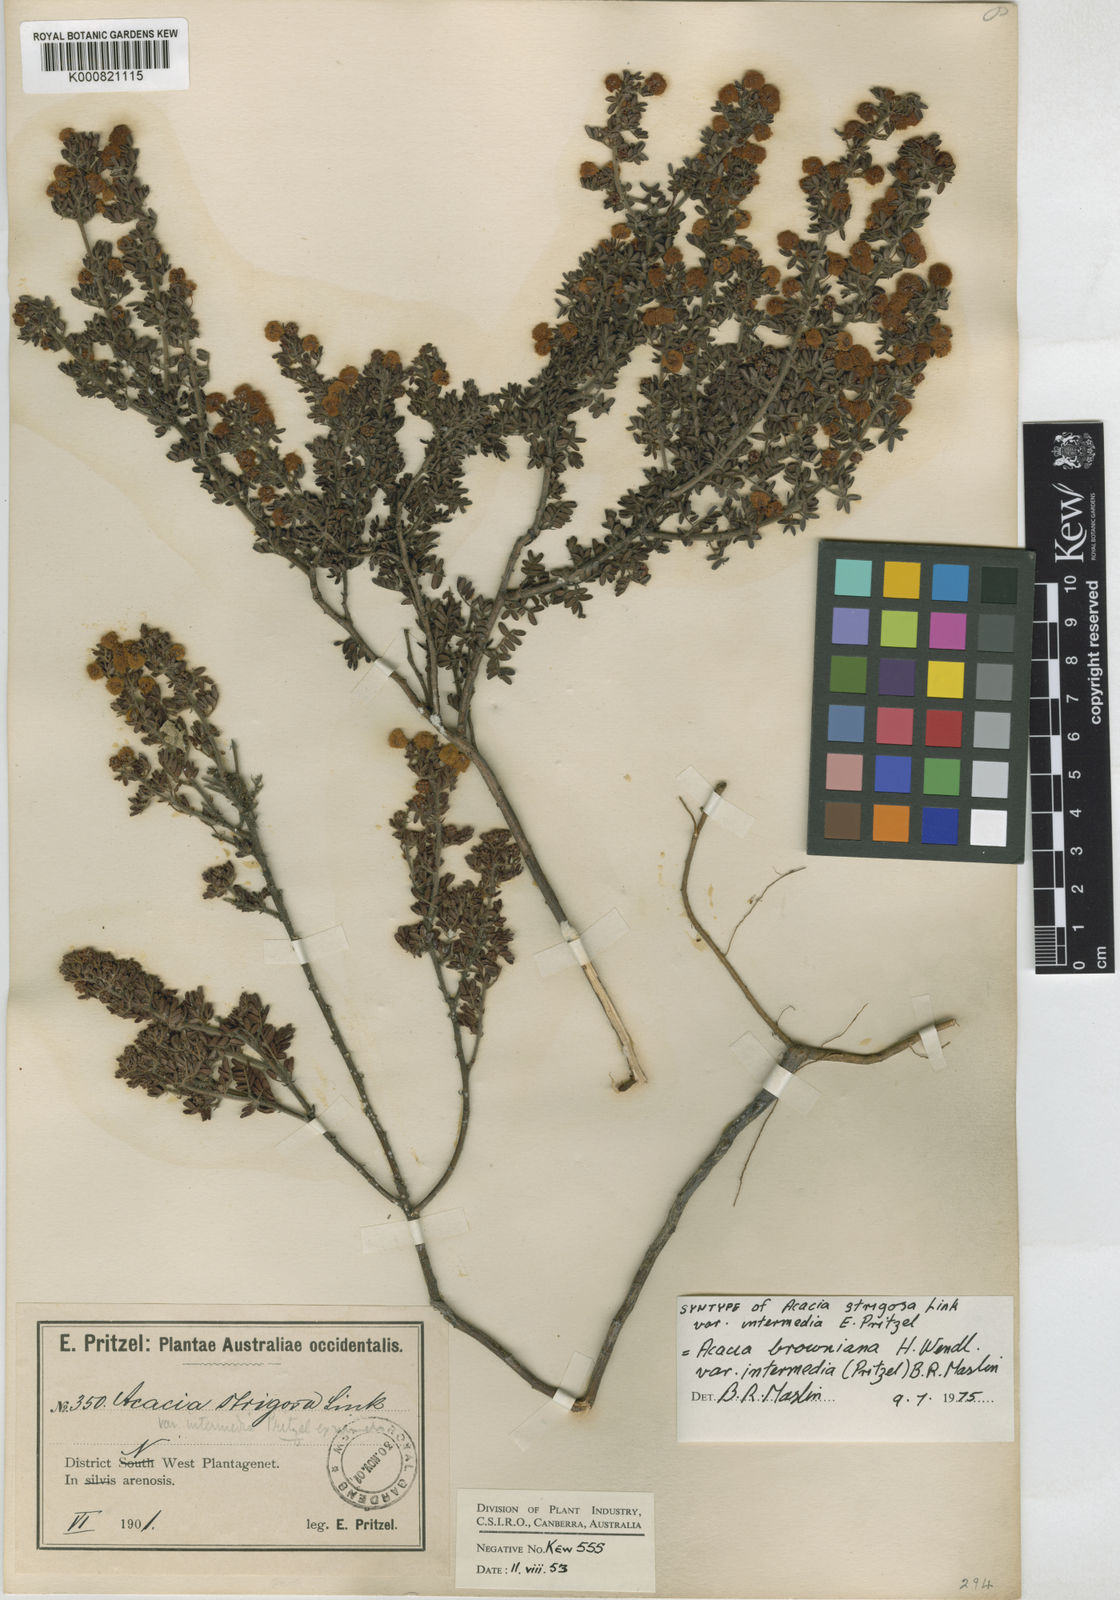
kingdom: Plantae
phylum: Tracheophyta
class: Magnoliopsida
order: Fabales
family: Fabaceae
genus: Acacia
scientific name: Acacia browniana
